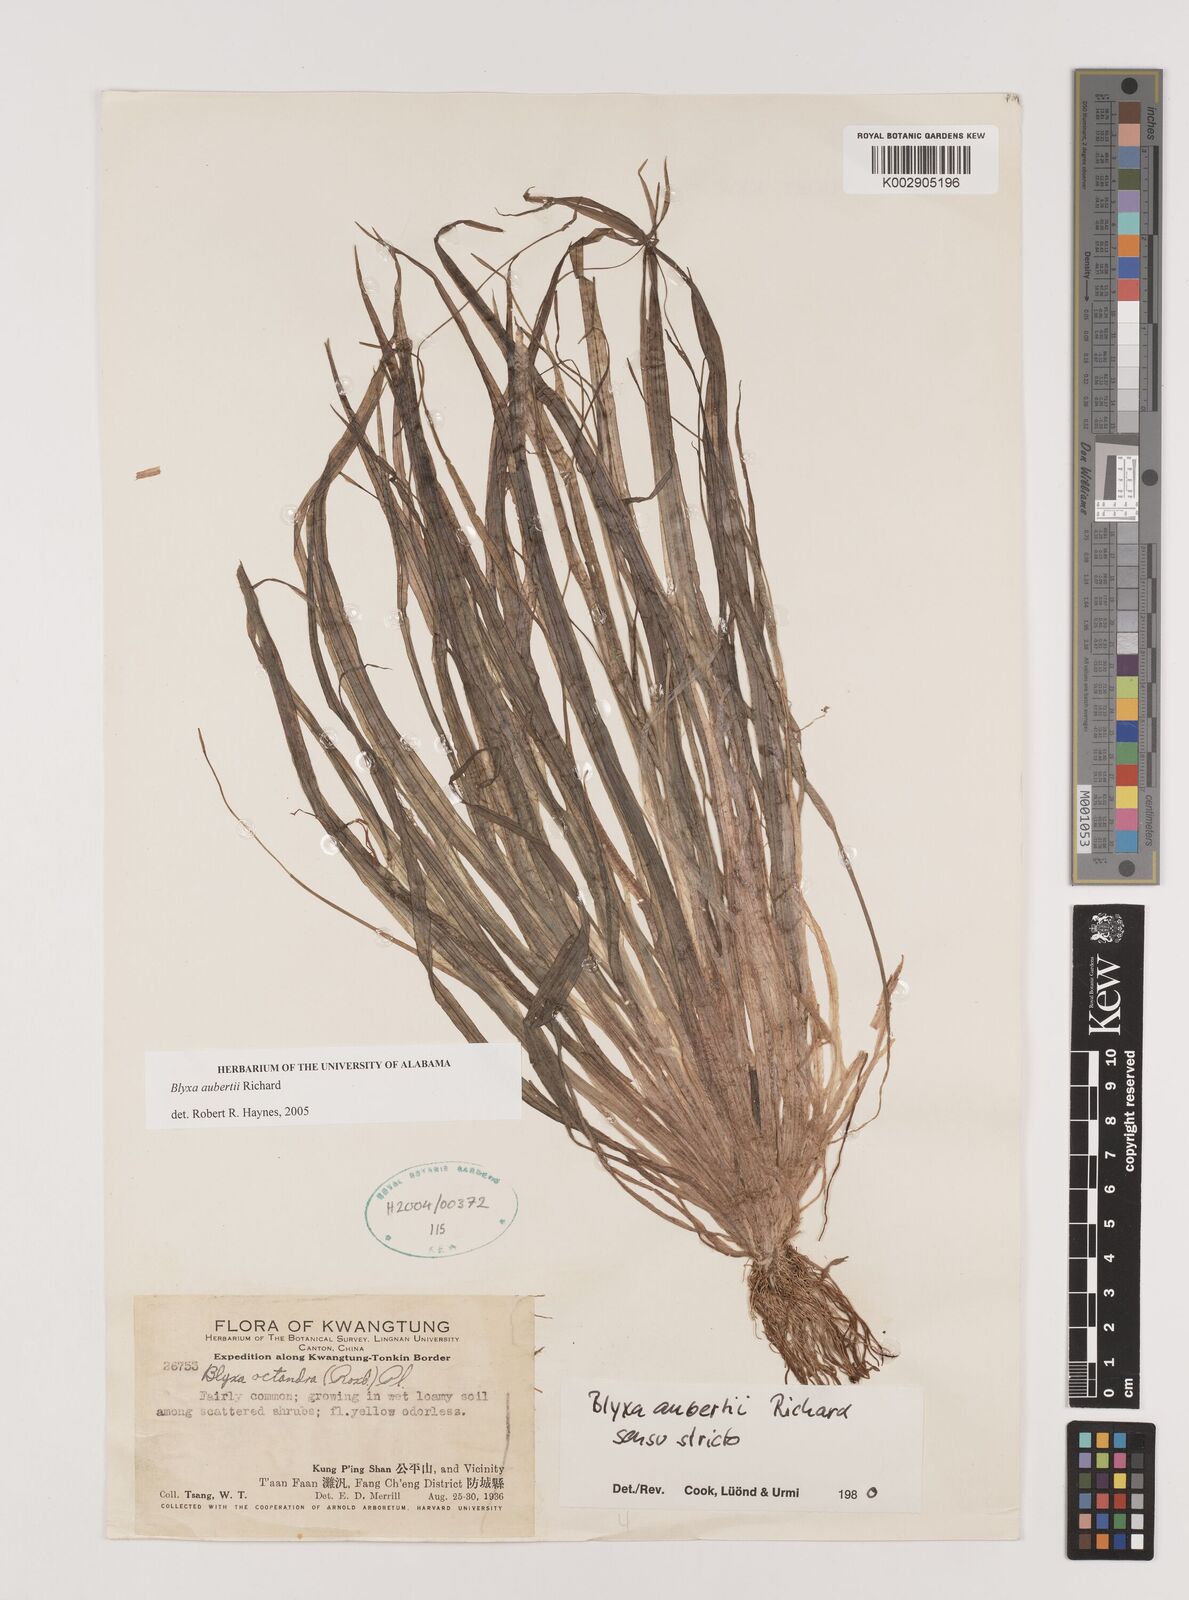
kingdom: Plantae
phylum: Tracheophyta
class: Liliopsida
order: Alismatales
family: Hydrocharitaceae
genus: Blyxa
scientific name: Blyxa aubertii
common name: Roundfruit blyxa
